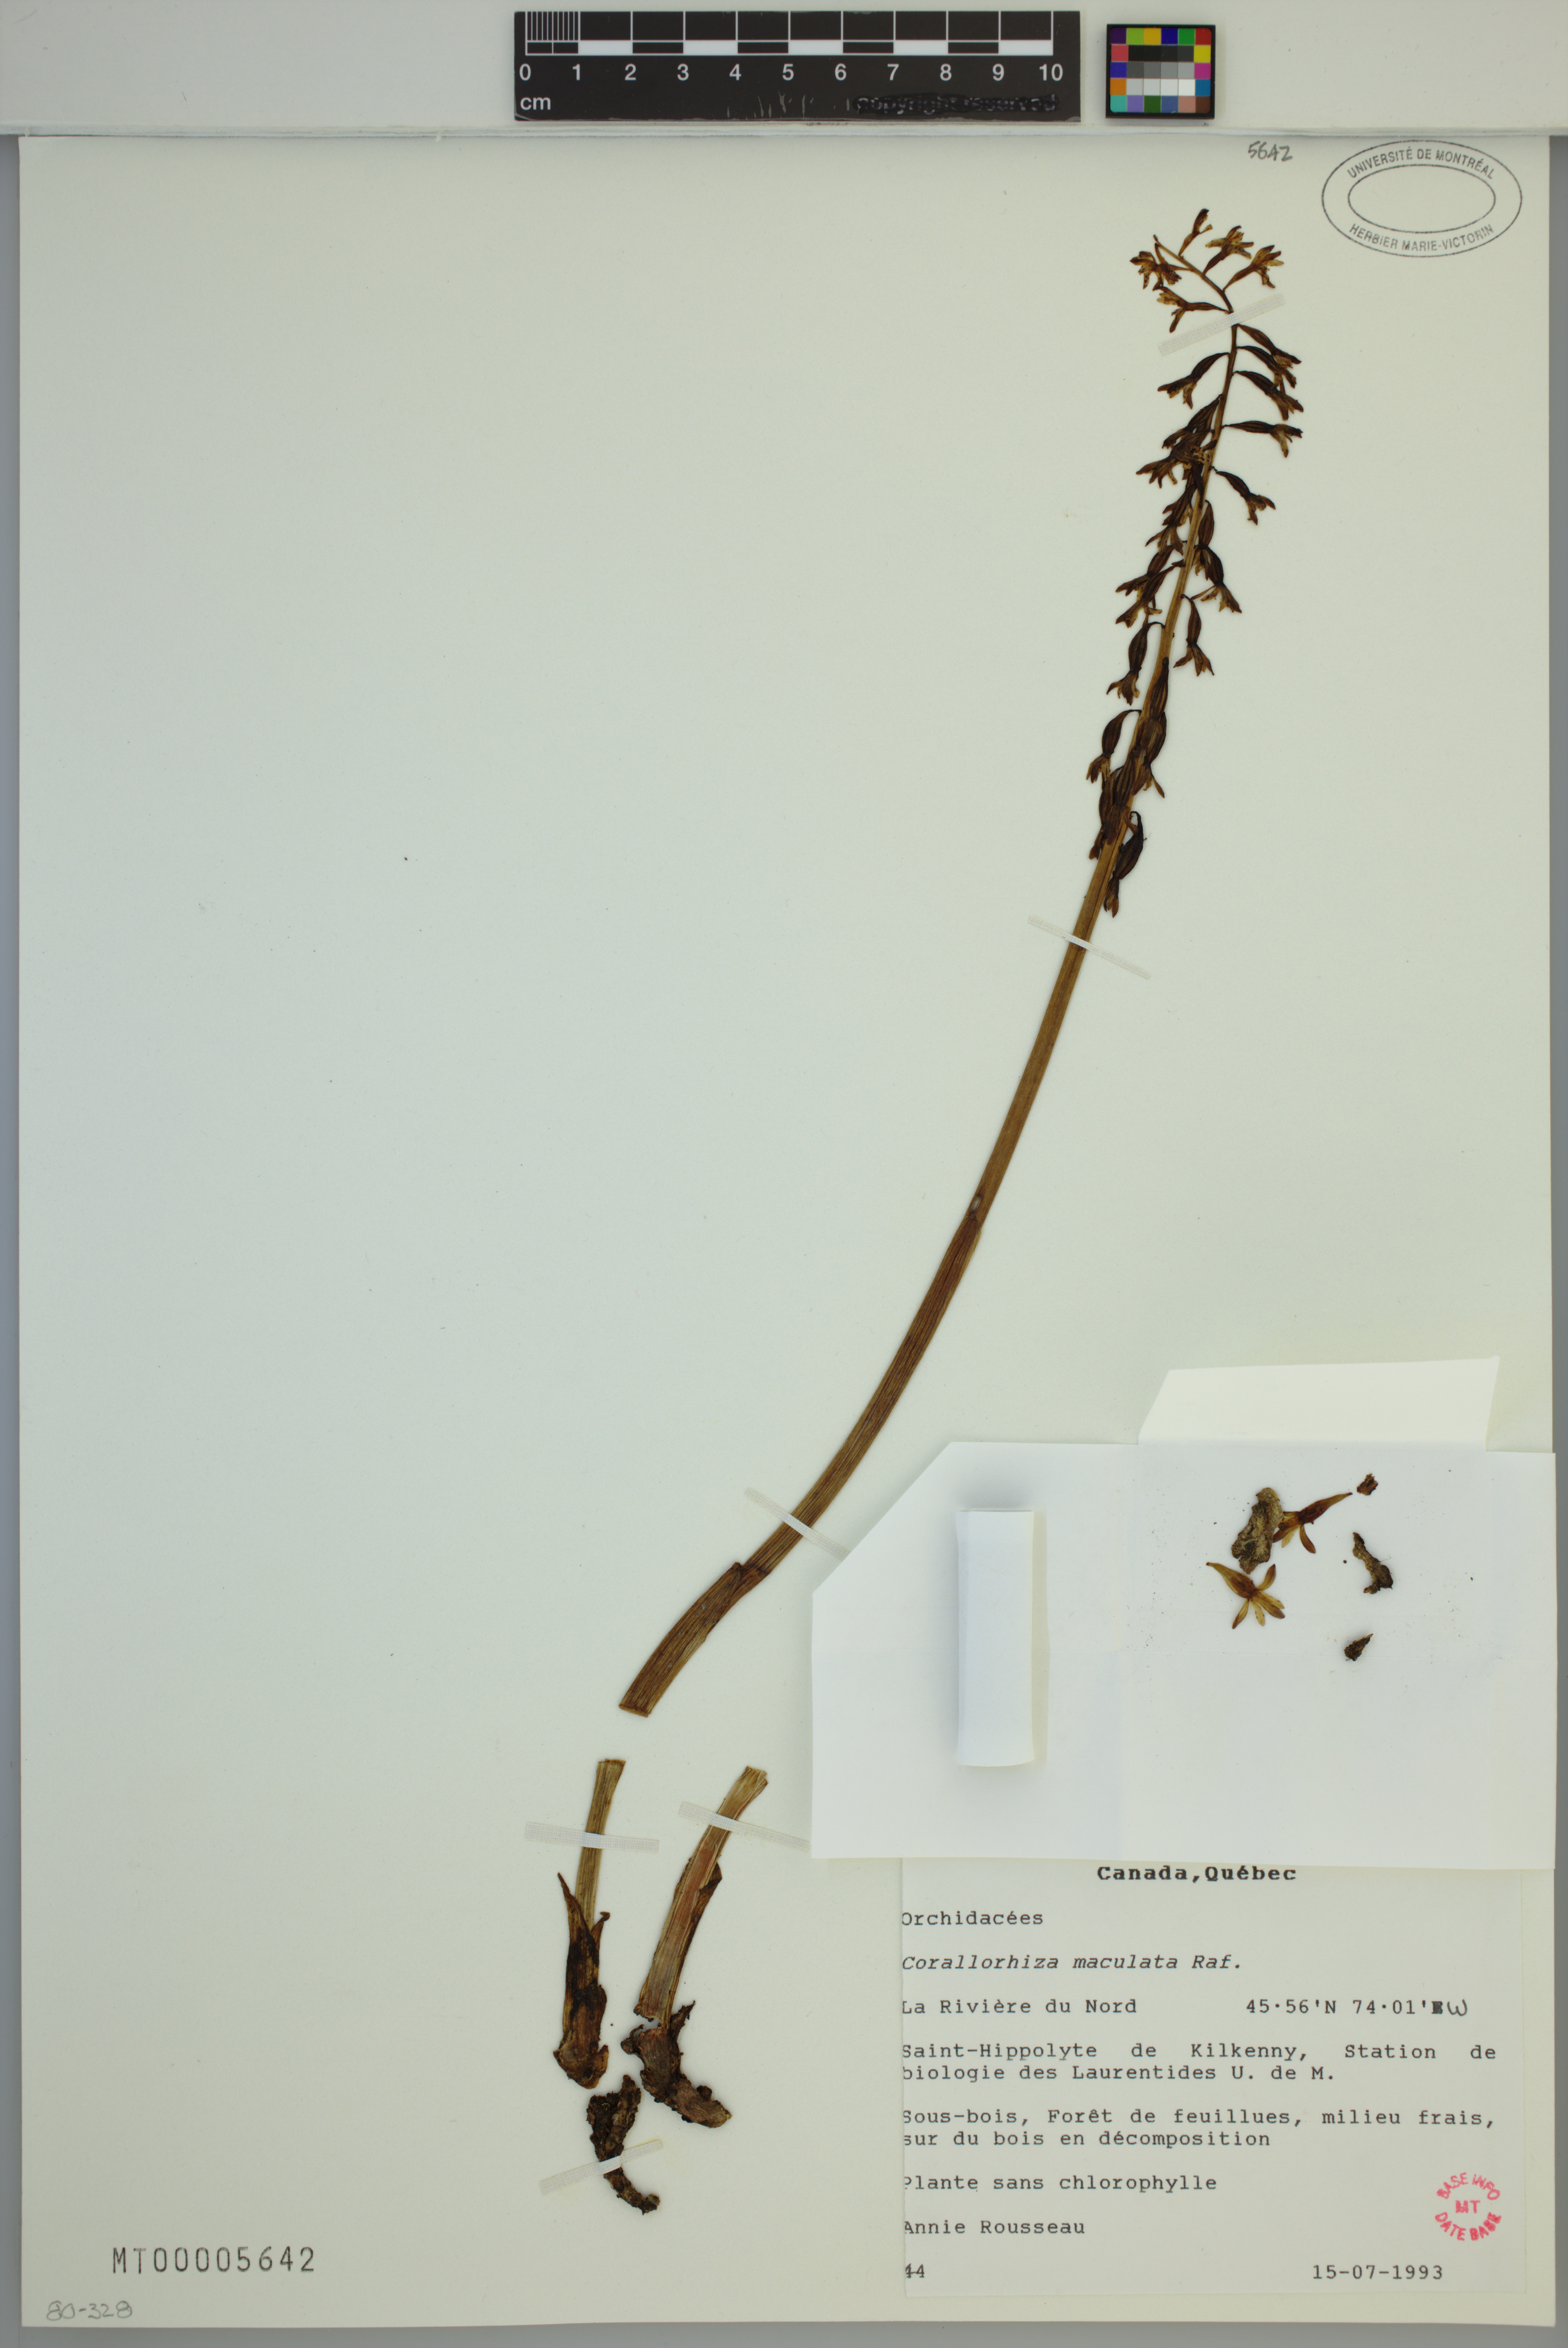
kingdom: Plantae
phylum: Tracheophyta
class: Liliopsida
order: Asparagales
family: Orchidaceae
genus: Corallorhiza
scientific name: Corallorhiza maculata
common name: Spotted coralroot
